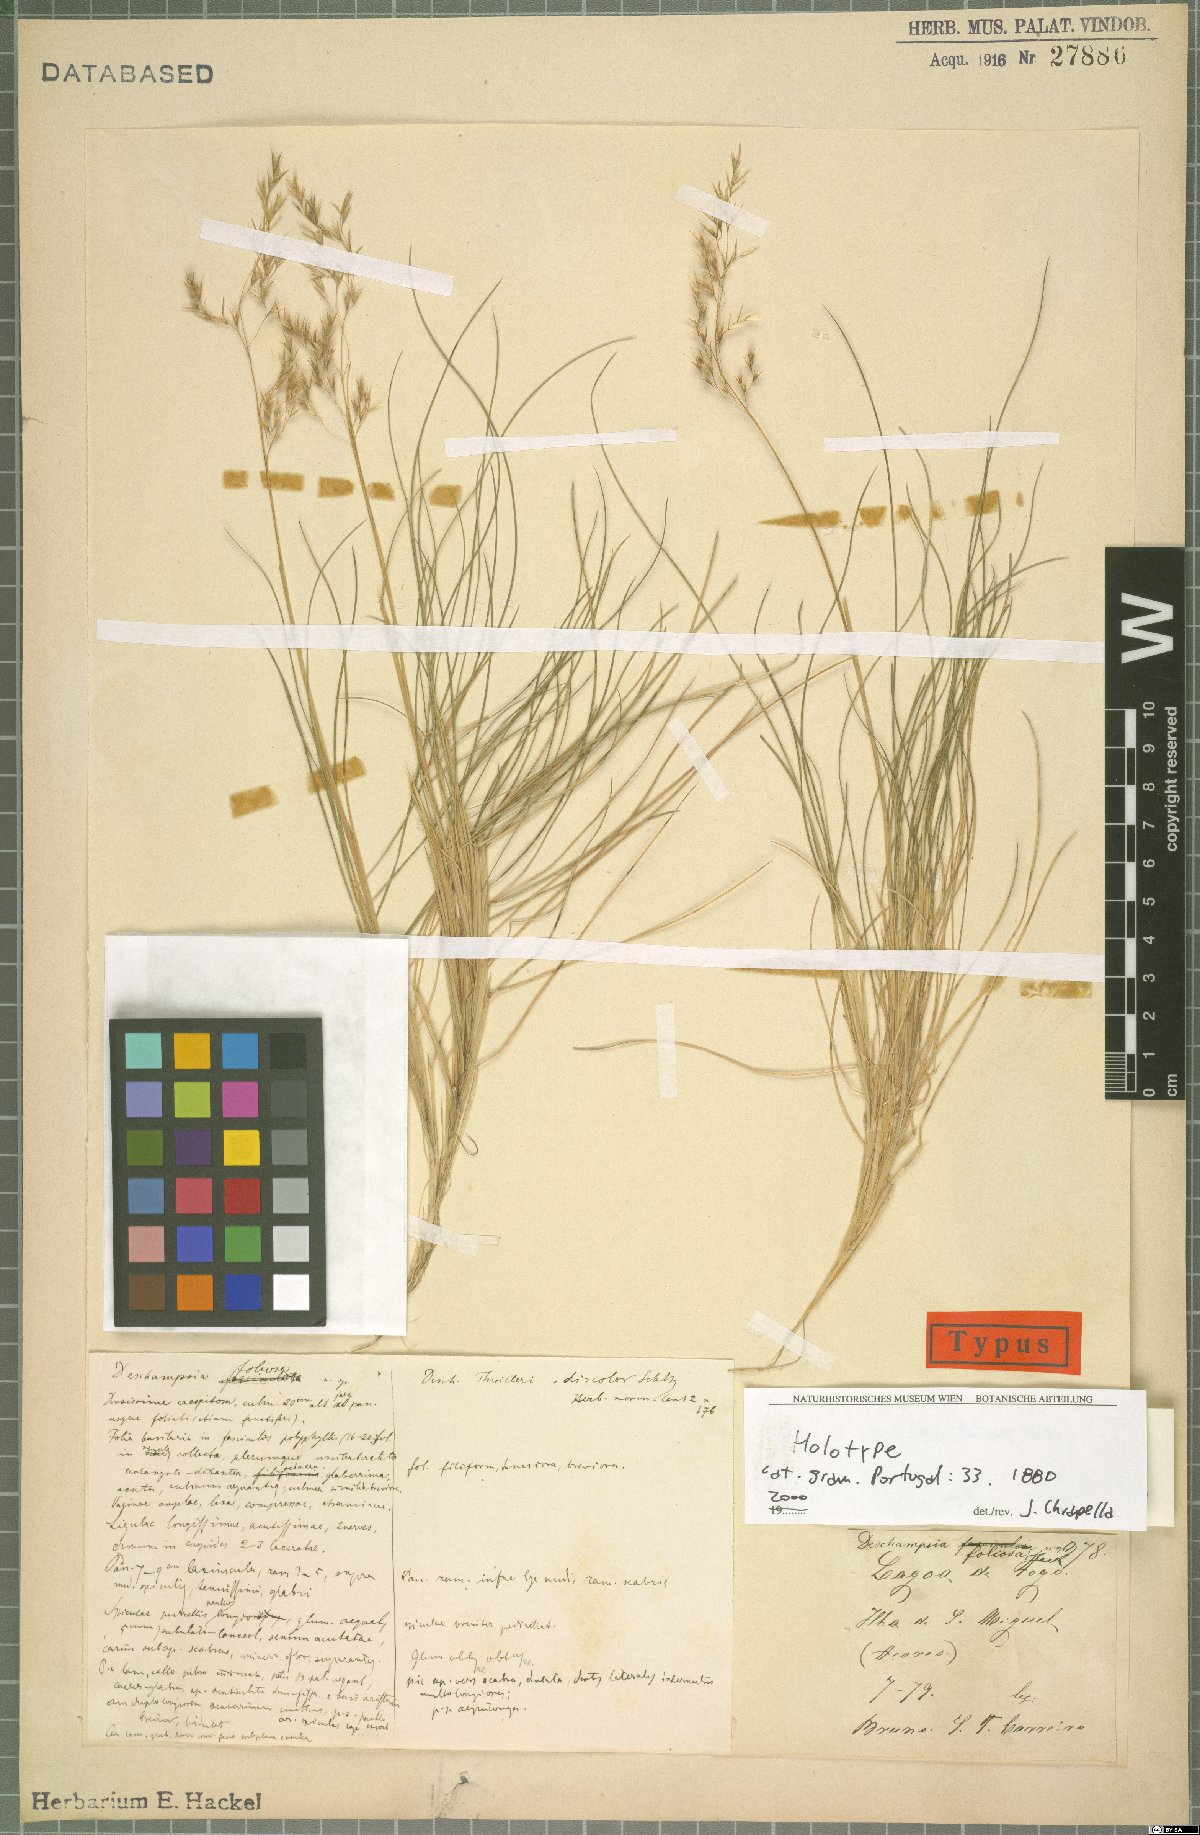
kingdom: Plantae
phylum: Tracheophyta
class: Liliopsida
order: Poales
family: Poaceae
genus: Avenella
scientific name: Avenella foliosa
